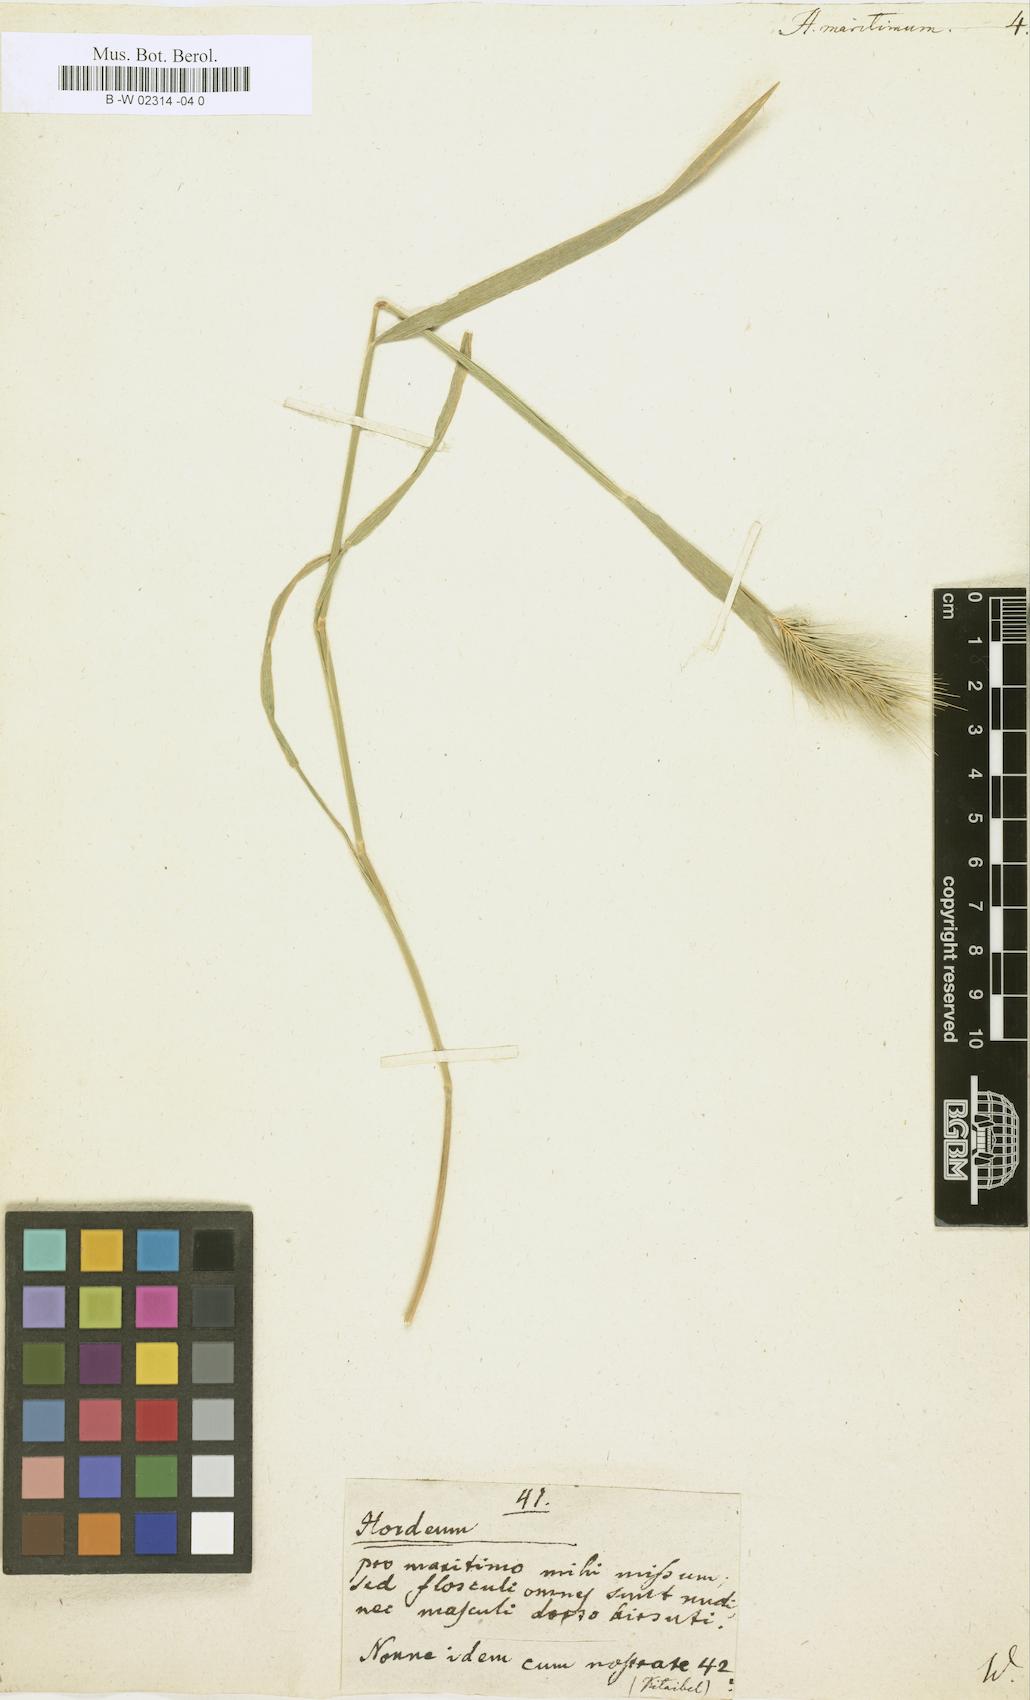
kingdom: Plantae
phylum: Tracheophyta
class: Liliopsida
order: Poales
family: Poaceae
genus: Hordeum
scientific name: Hordeum maritimum
